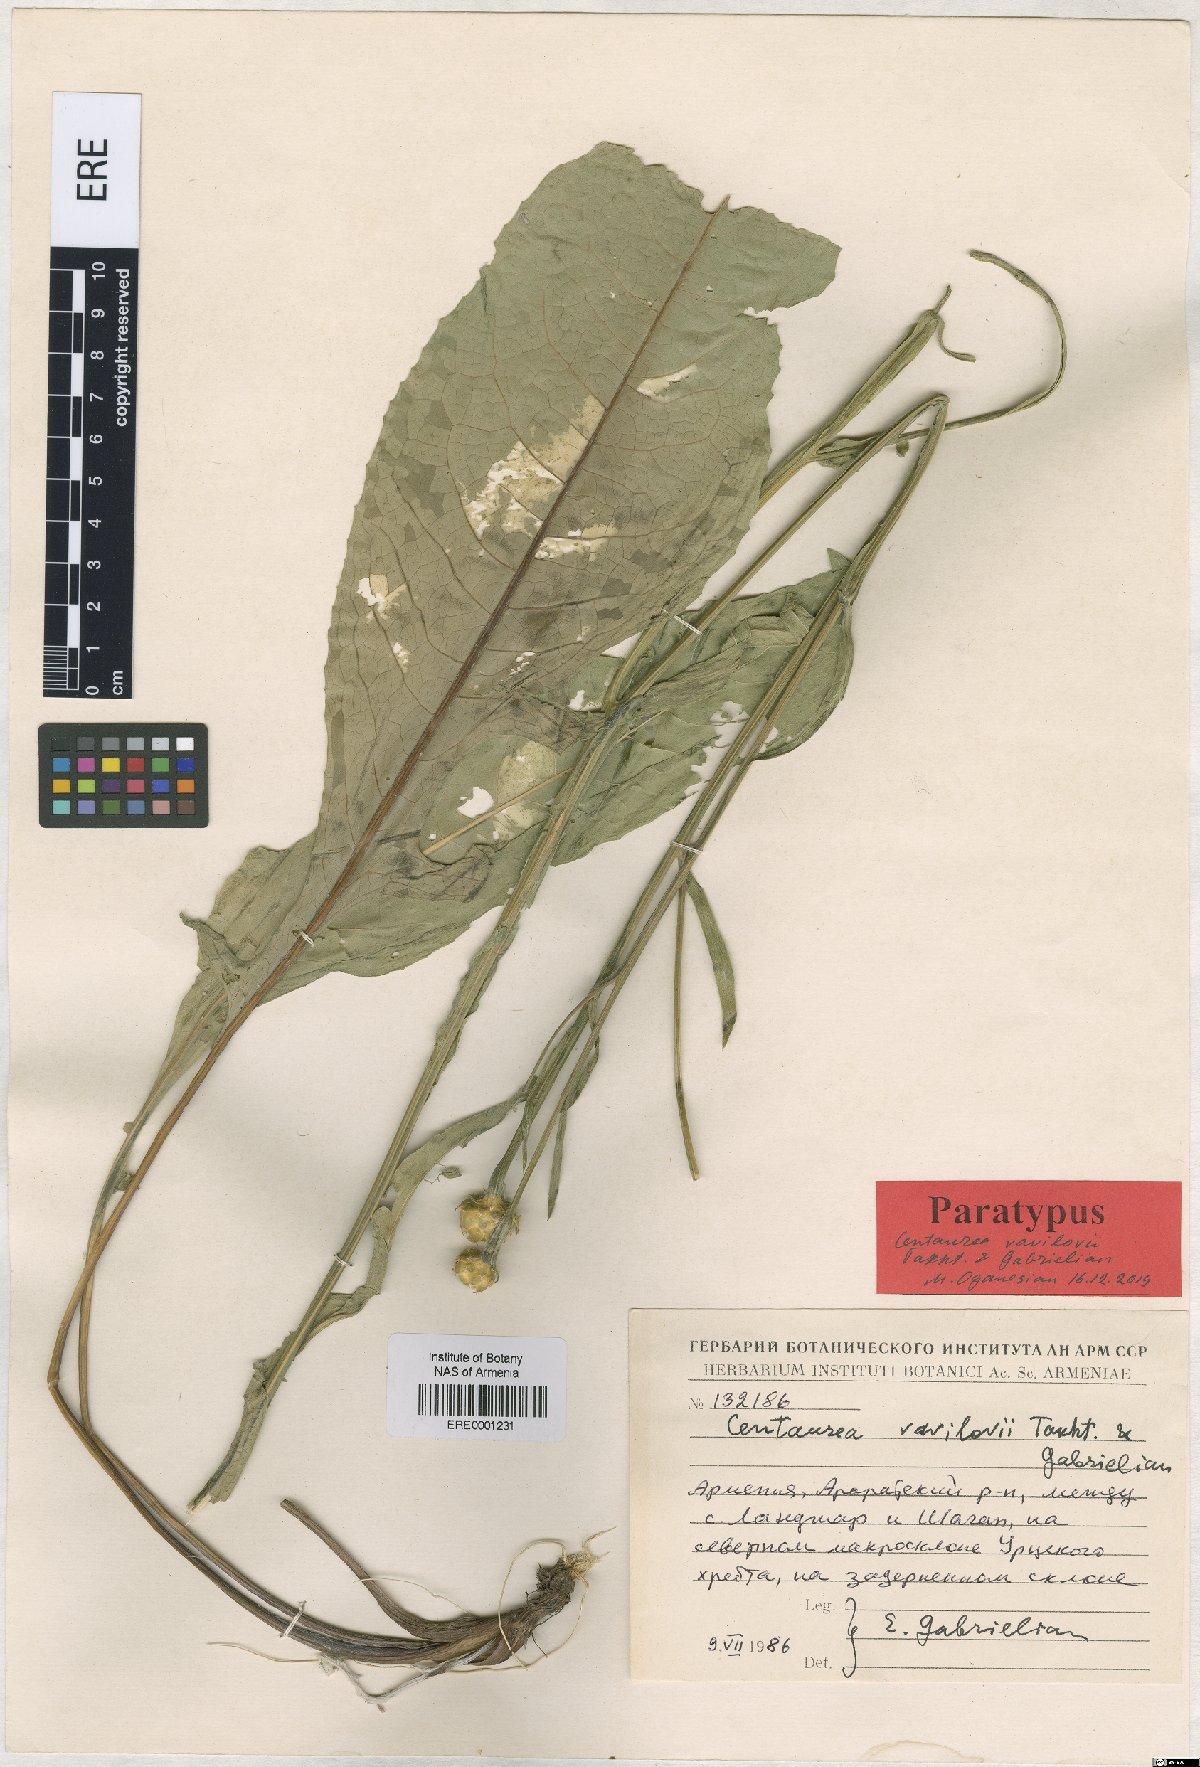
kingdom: Plantae
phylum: Tracheophyta
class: Magnoliopsida
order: Asterales
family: Asteraceae
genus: Centaurea
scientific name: Centaurea vavilovii
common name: Vavilov's centaury
